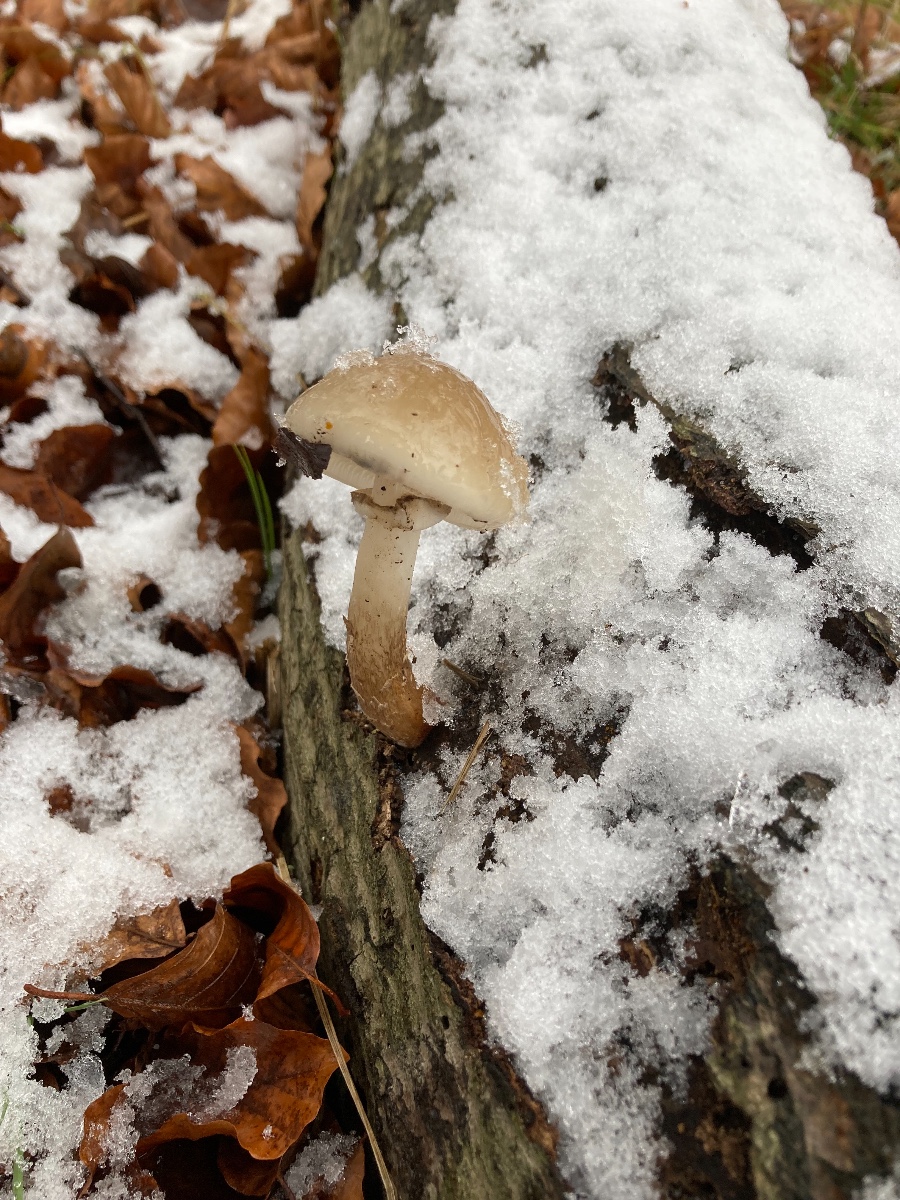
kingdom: Fungi
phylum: Basidiomycota
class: Agaricomycetes
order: Agaricales
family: Physalacriaceae
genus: Mucidula
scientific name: Mucidula mucida
